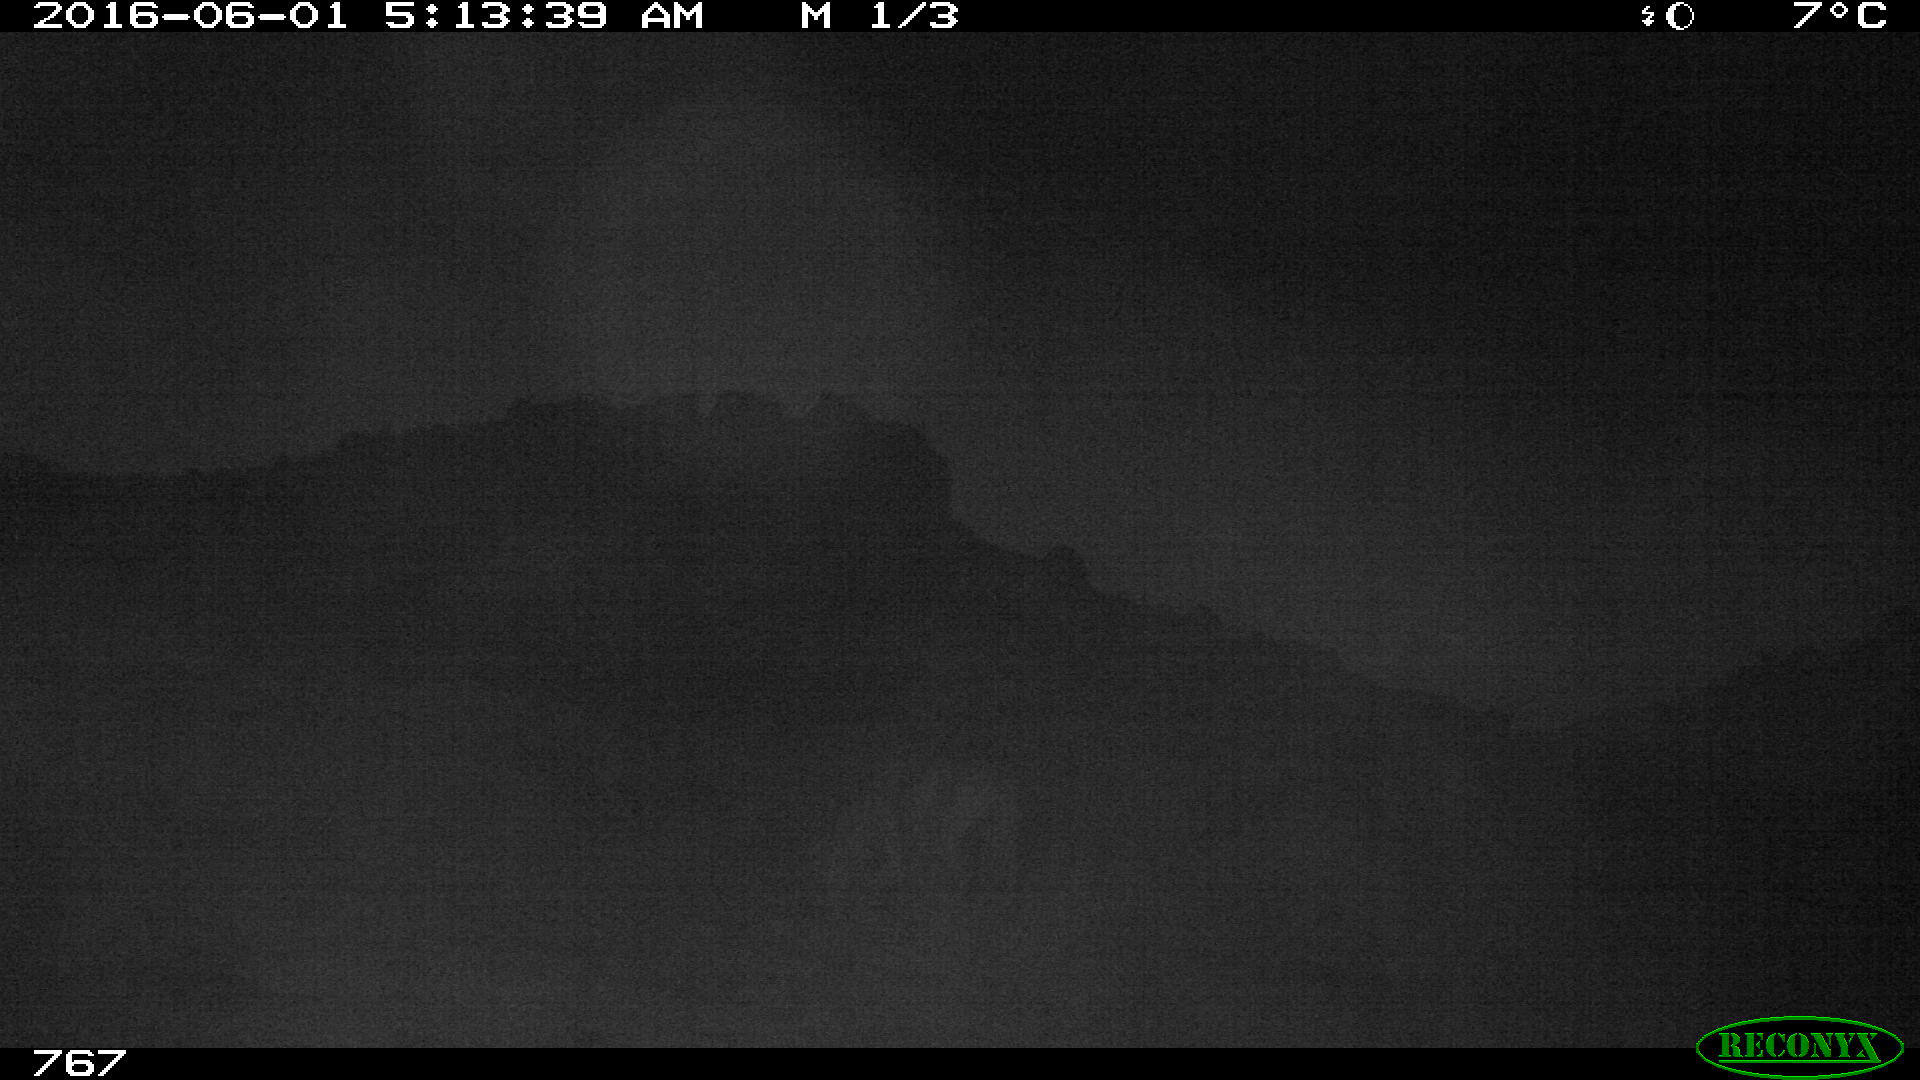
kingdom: Animalia
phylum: Chordata
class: Mammalia
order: Perissodactyla
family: Equidae
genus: Equus
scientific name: Equus caballus
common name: Horse
